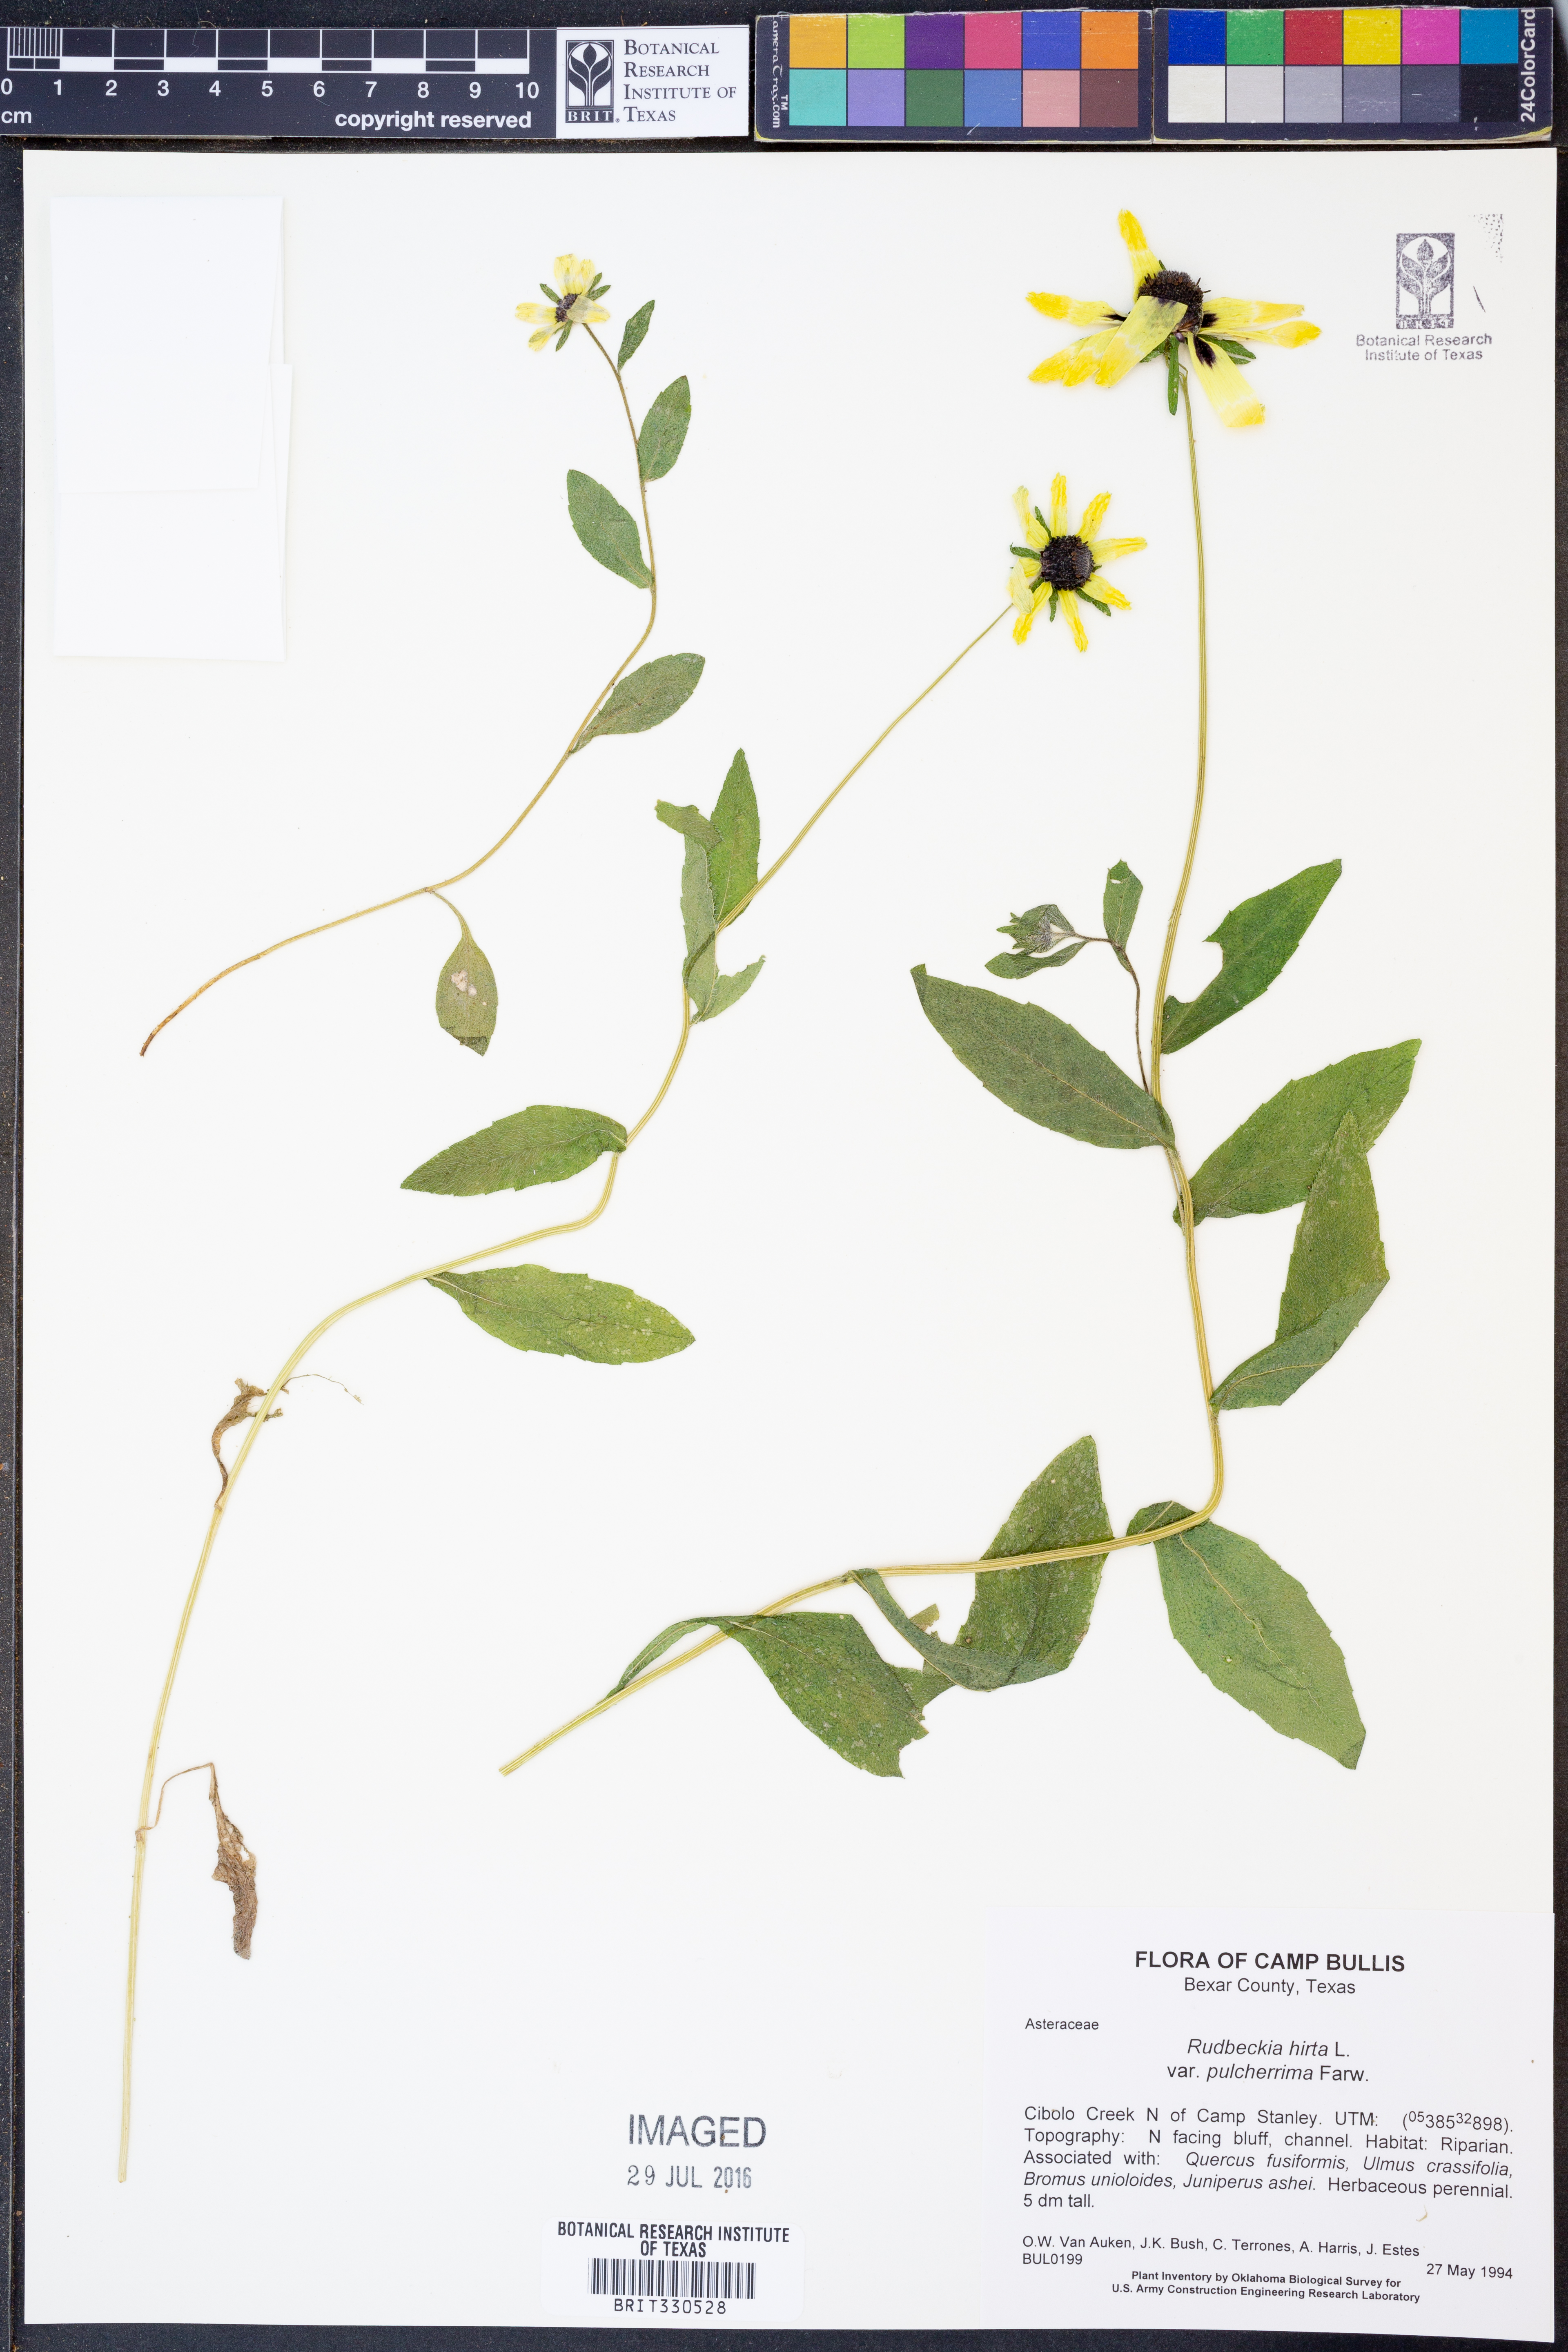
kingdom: Plantae
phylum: Tracheophyta
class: Magnoliopsida
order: Asterales
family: Asteraceae
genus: Rudbeckia
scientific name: Rudbeckia hirta
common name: Black-eyed-susan
